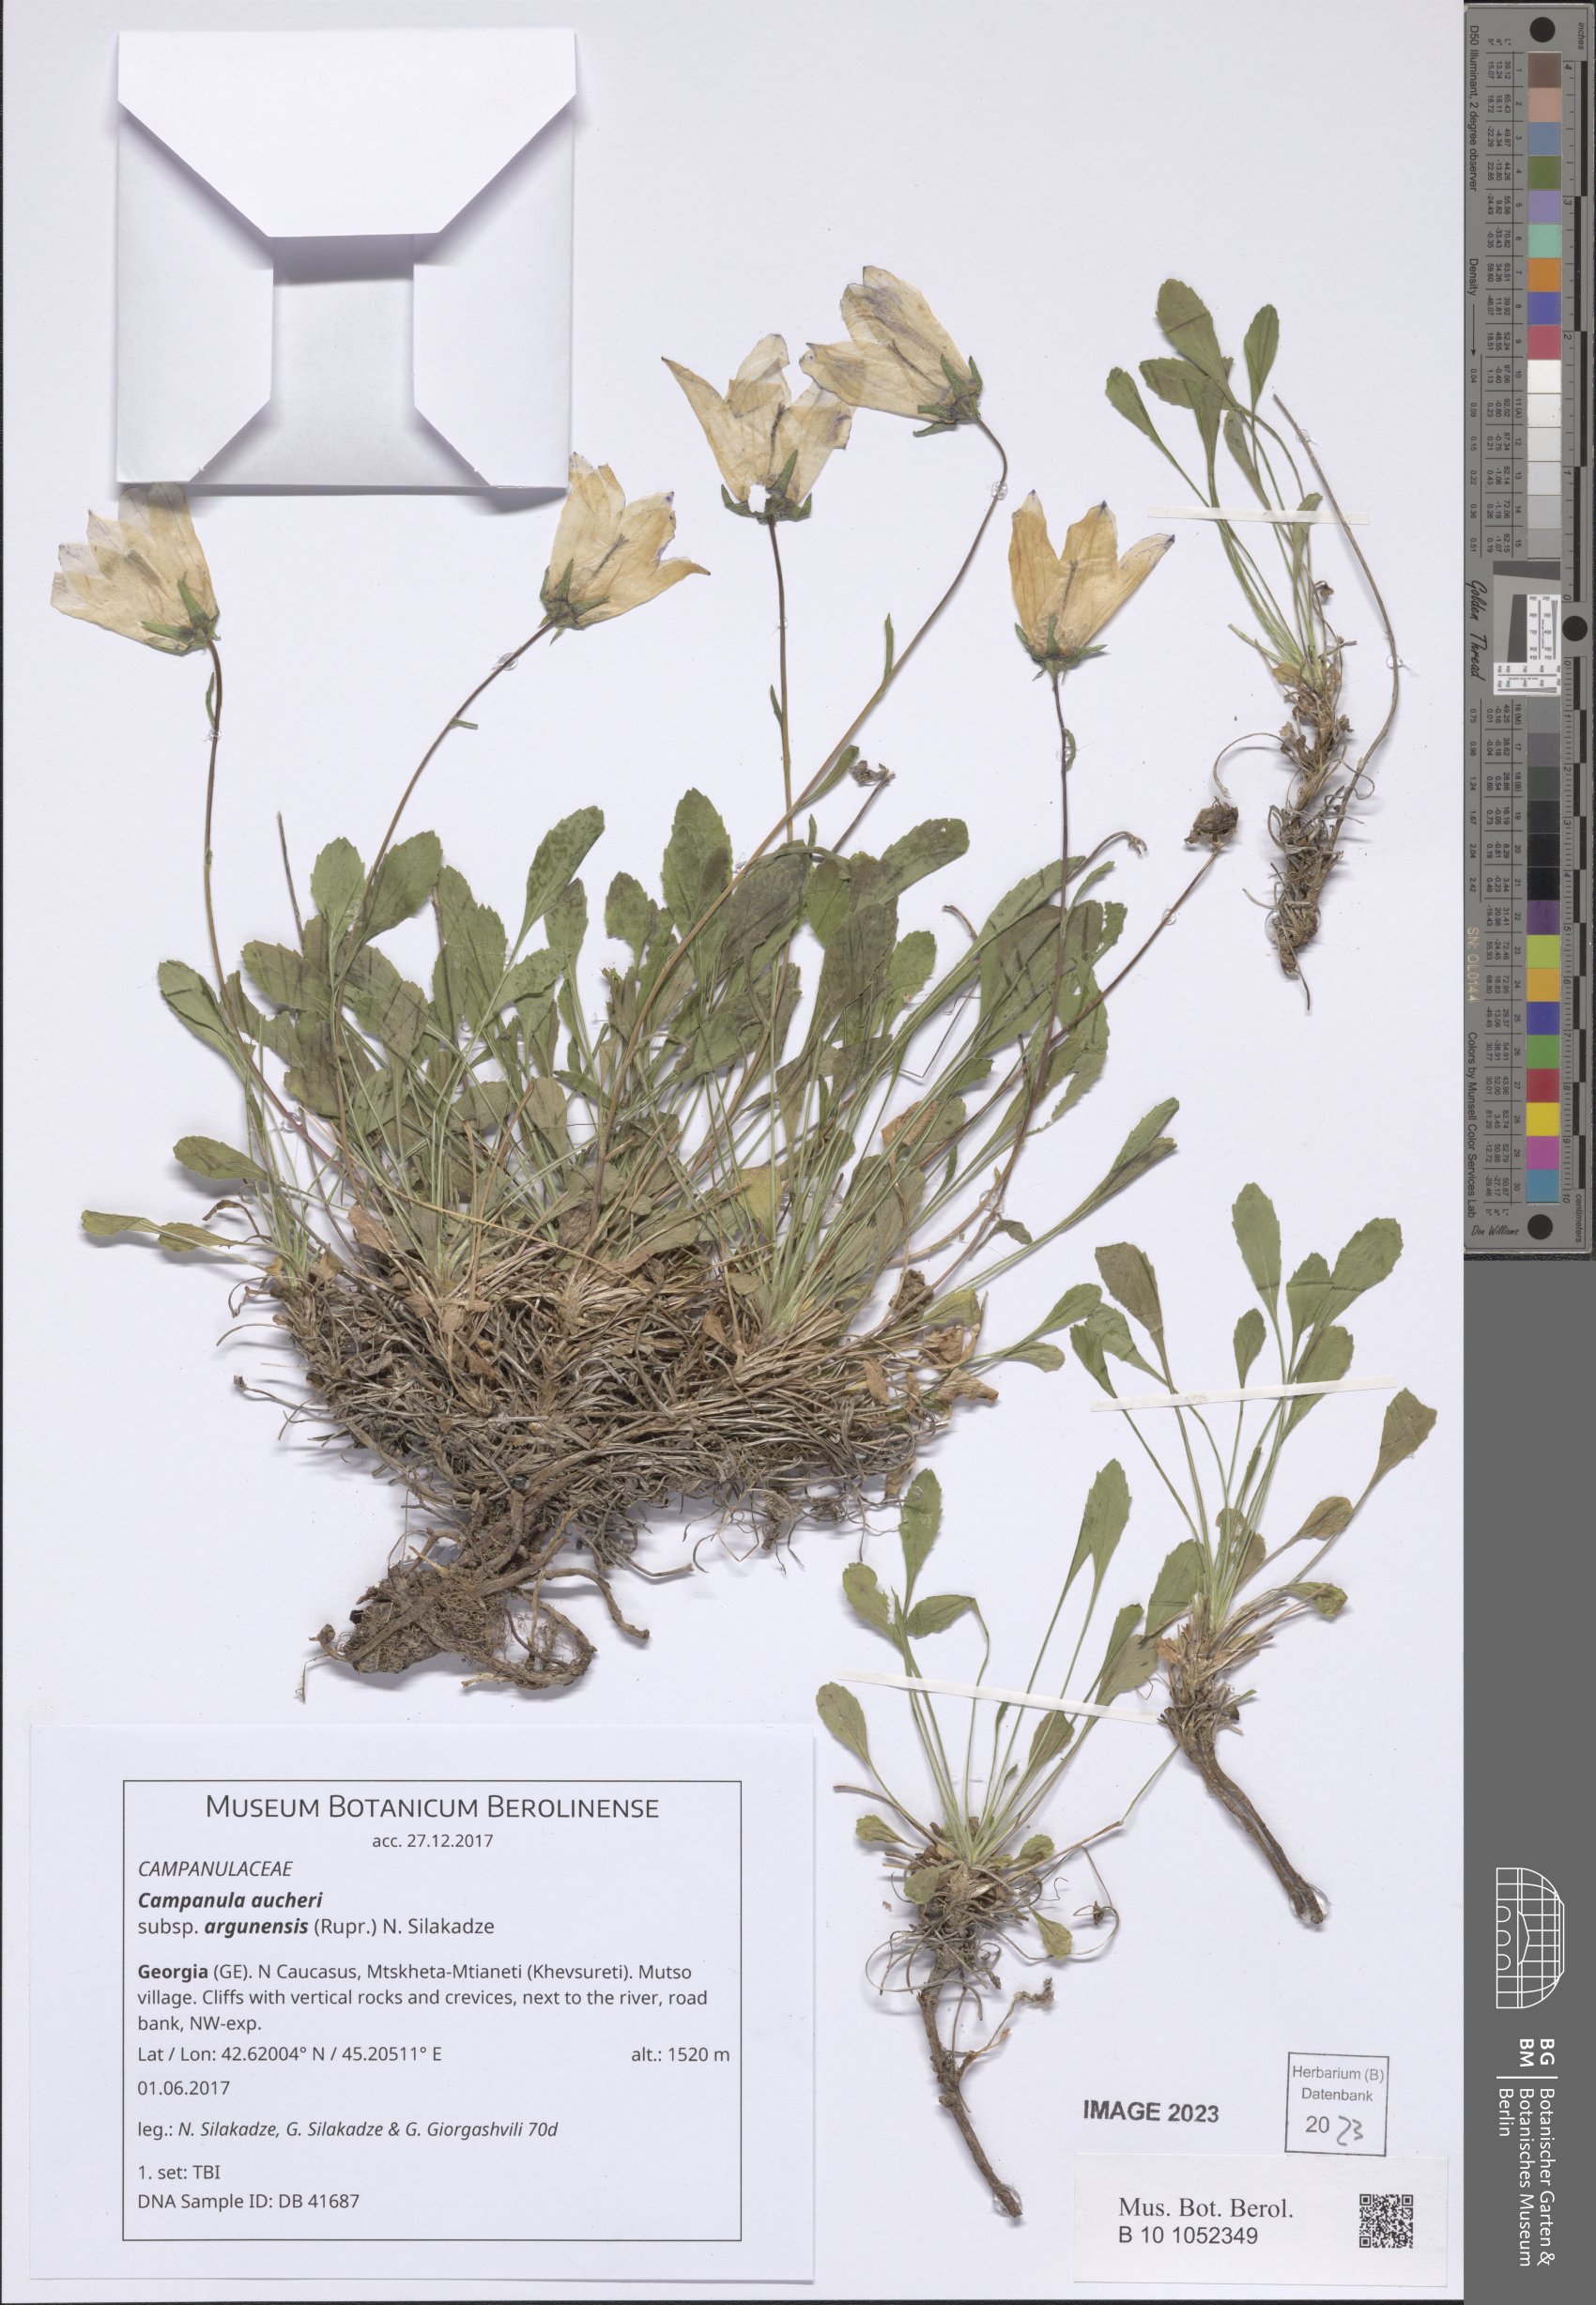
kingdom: Plantae
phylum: Tracheophyta
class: Magnoliopsida
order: Asterales
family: Campanulaceae
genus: Campanula
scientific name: Campanula saxifraga
